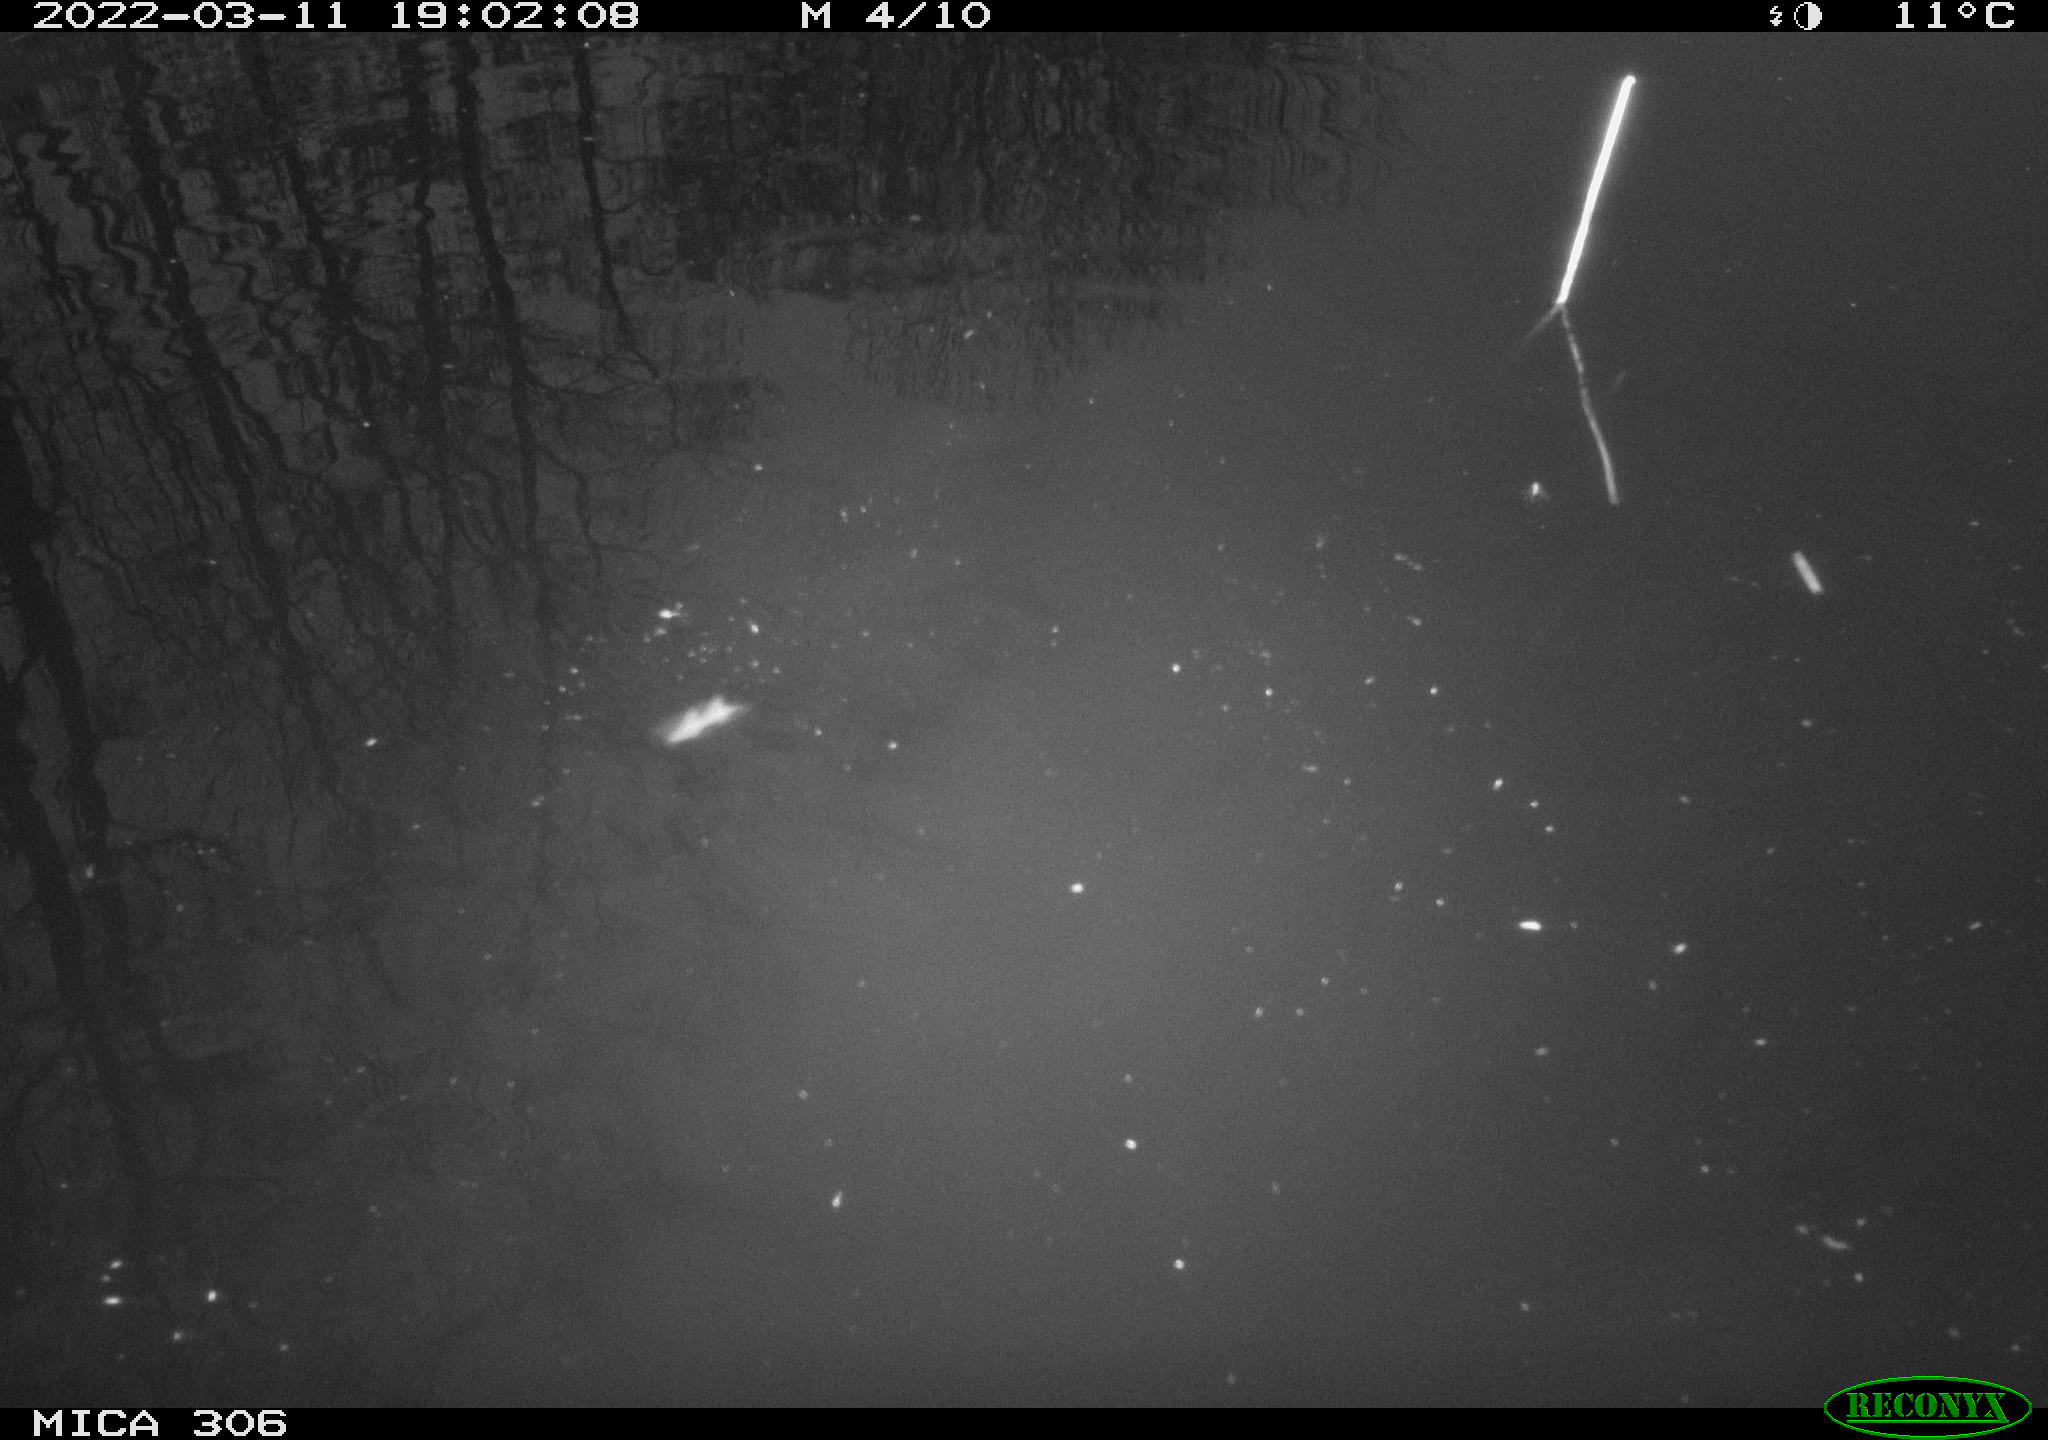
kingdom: Animalia
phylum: Chordata
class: Aves
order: Gruiformes
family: Rallidae
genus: Gallinula
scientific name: Gallinula chloropus
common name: Common moorhen
